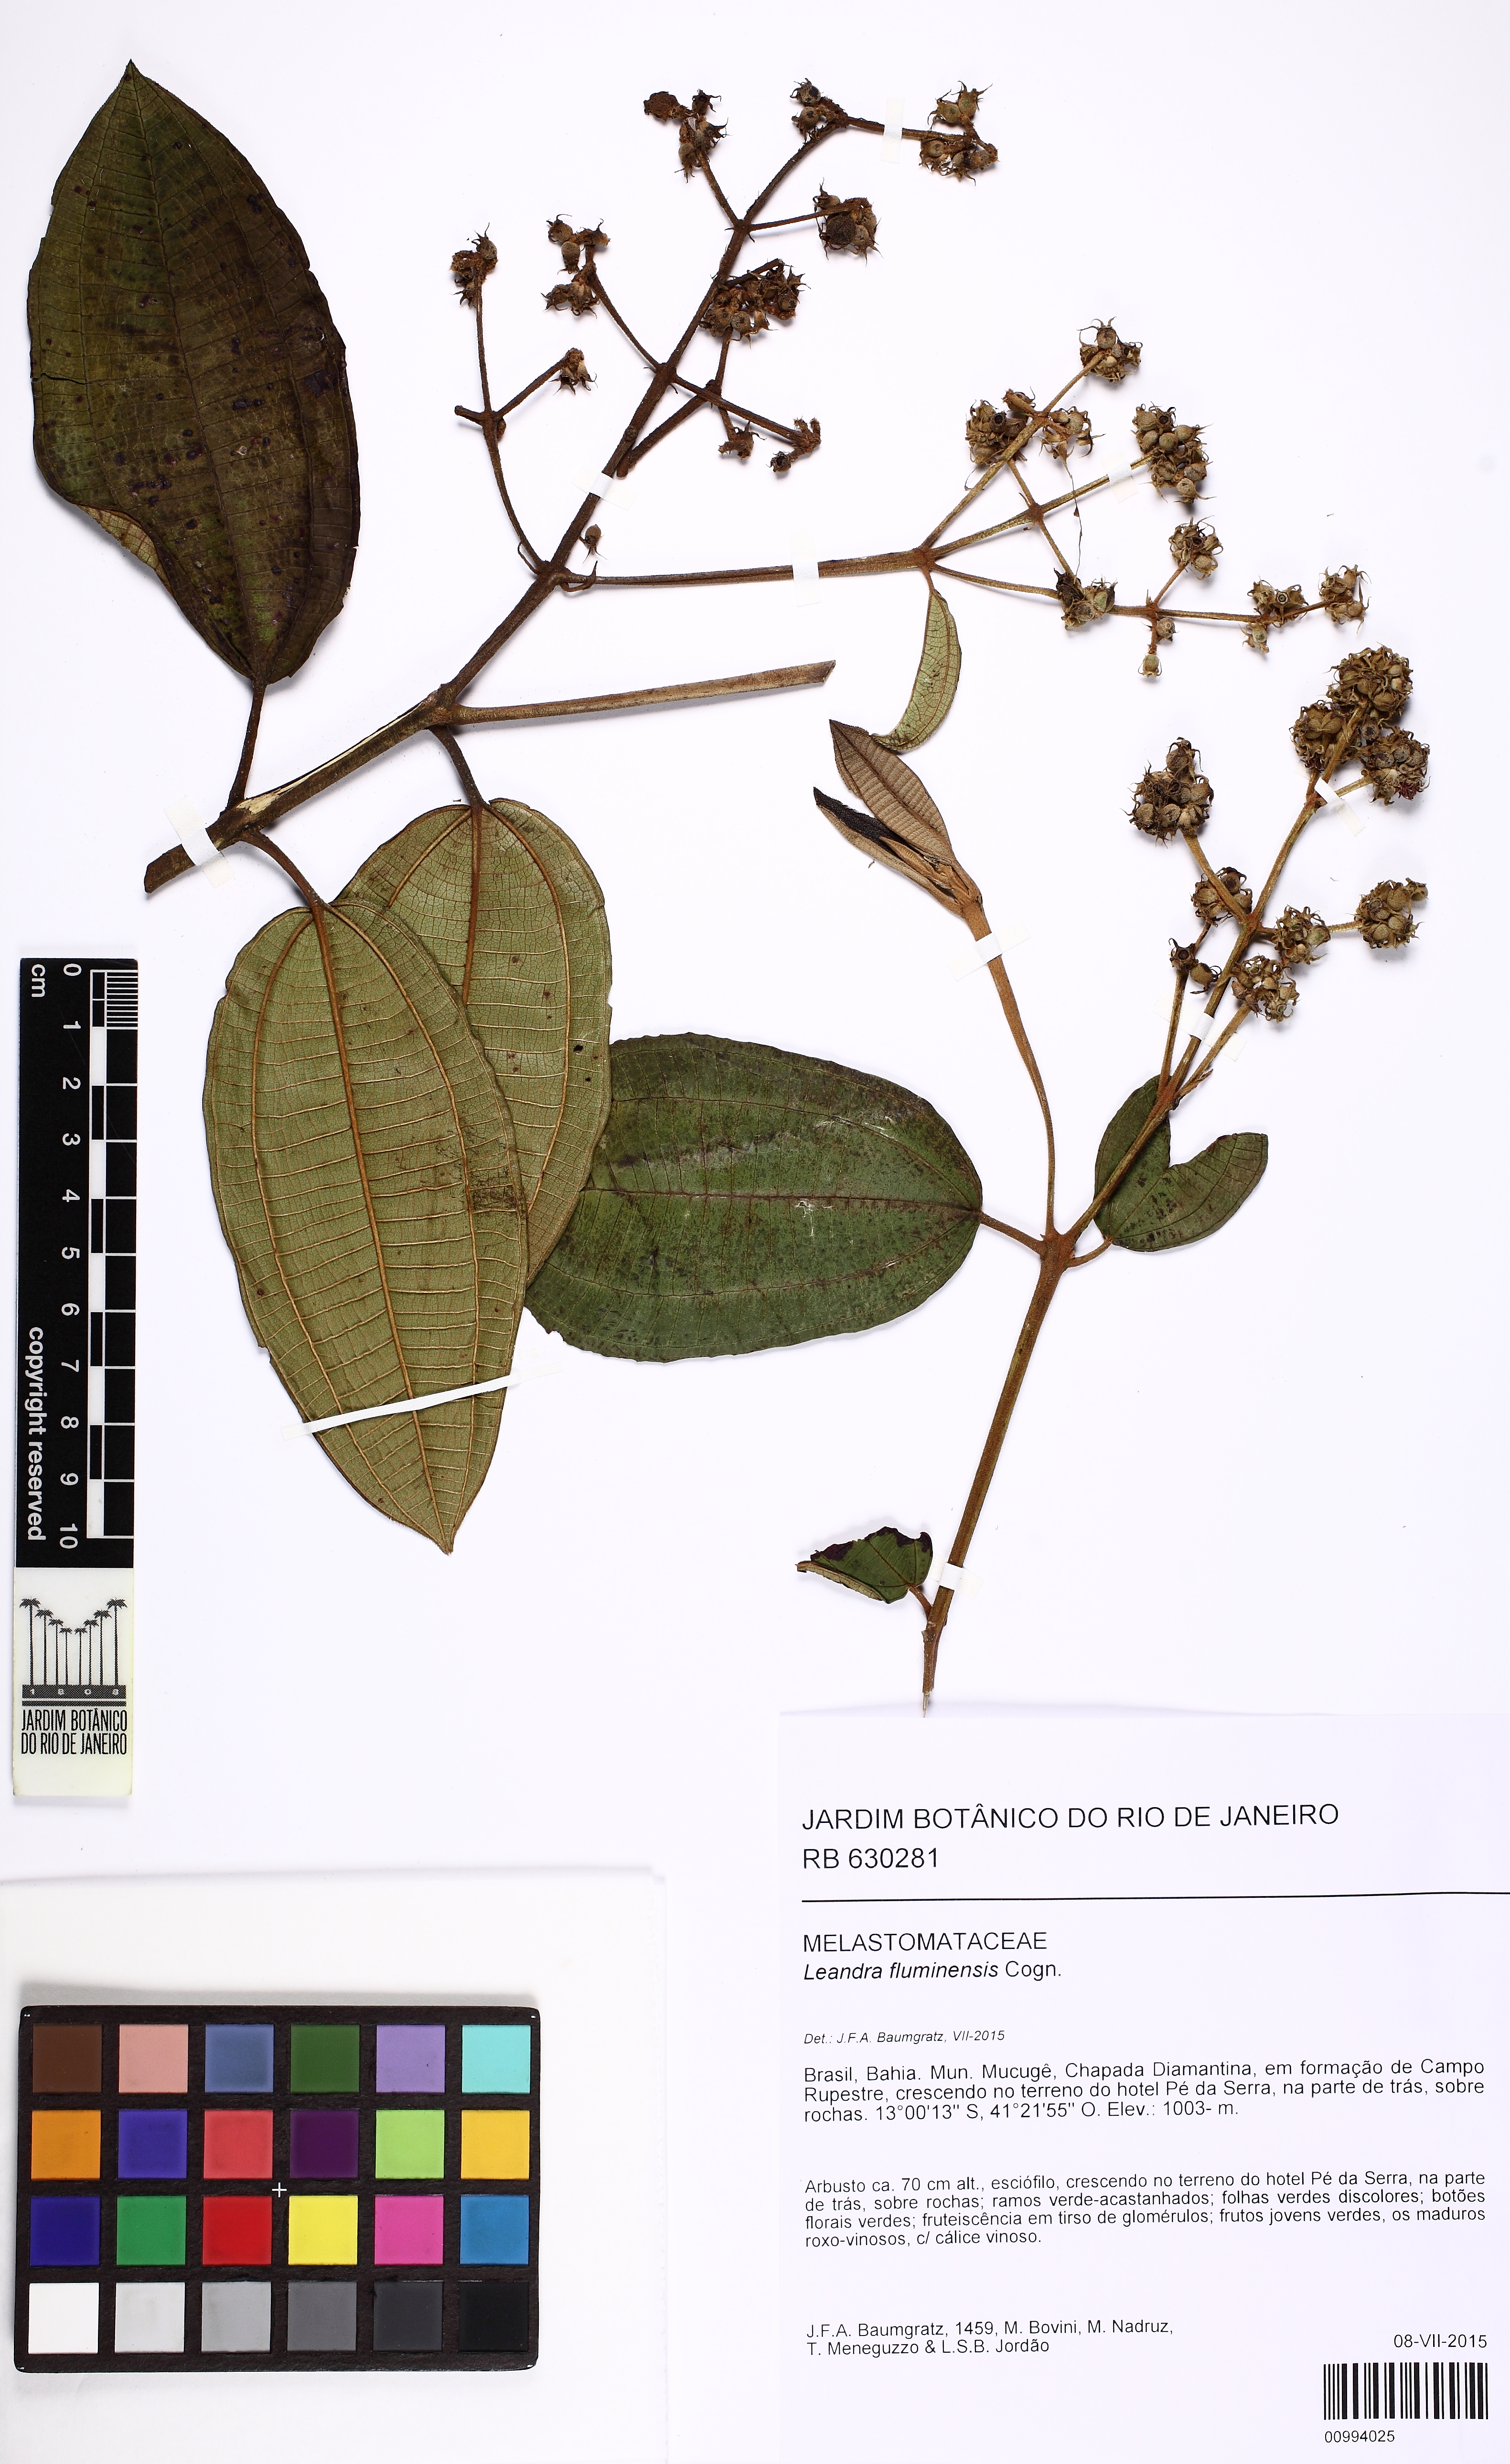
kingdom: Plantae
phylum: Tracheophyta
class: Magnoliopsida
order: Myrtales
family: Melastomataceae
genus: Miconia
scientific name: Miconia leafluminensis
